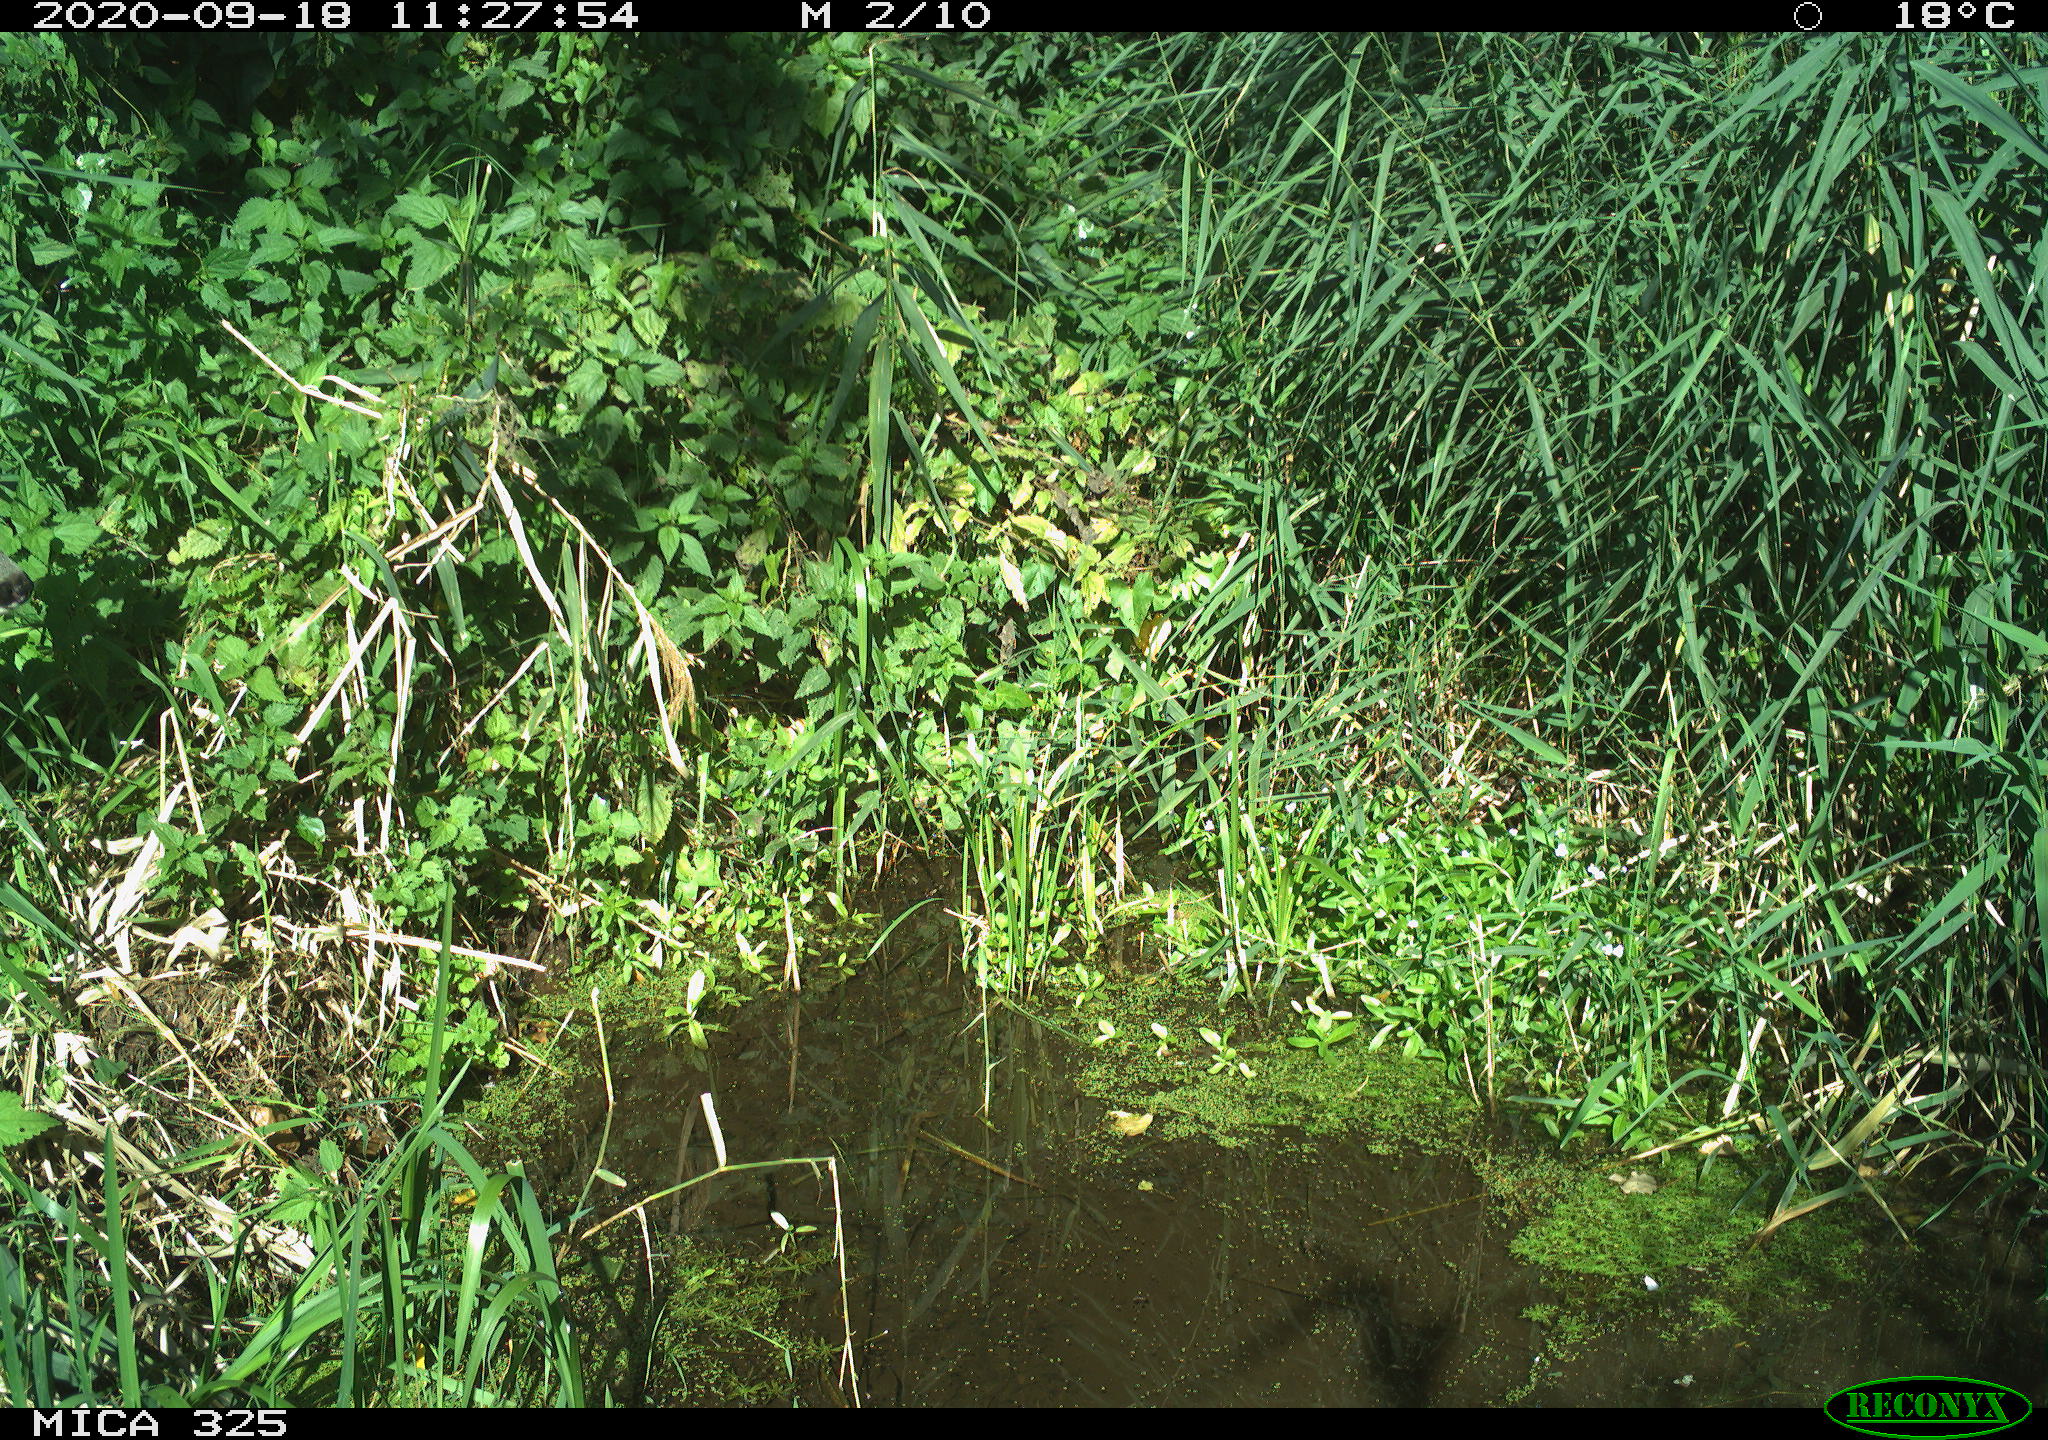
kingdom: Animalia
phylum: Chordata
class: Mammalia
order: Artiodactyla
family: Cervidae
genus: Capreolus
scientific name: Capreolus capreolus
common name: Western roe deer
